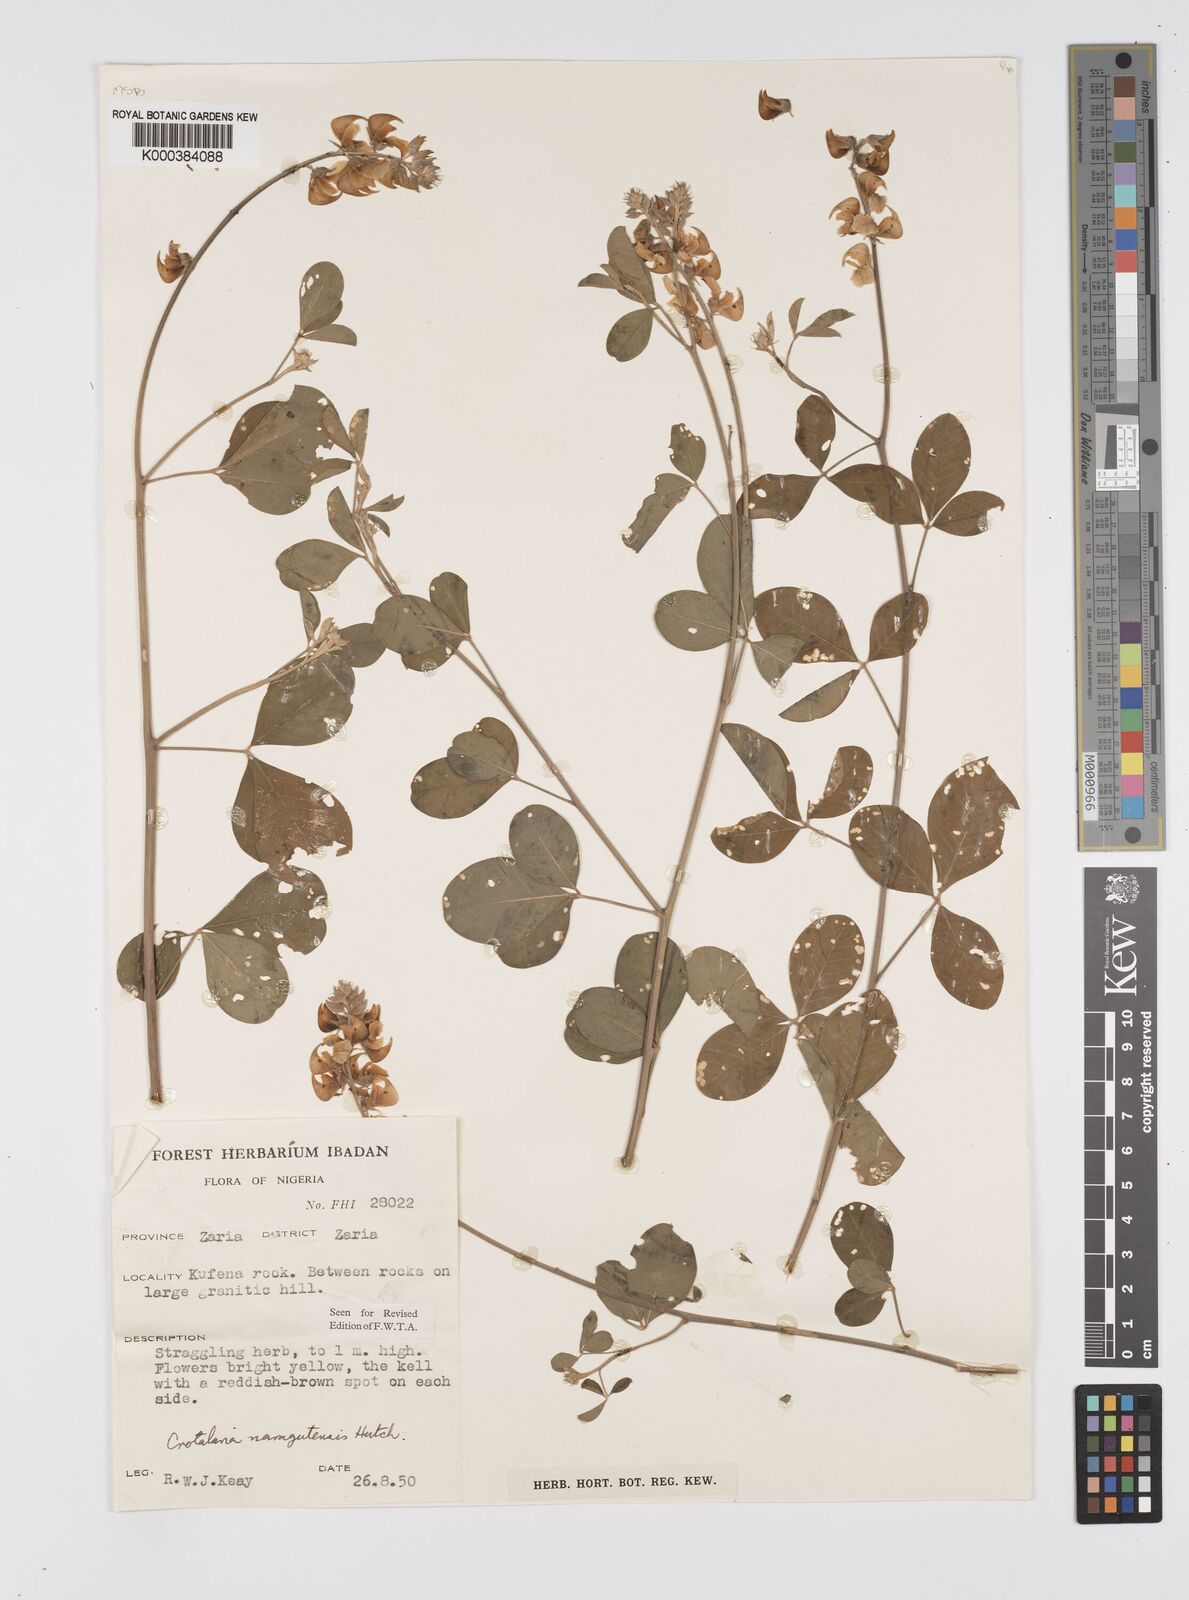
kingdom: Plantae
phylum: Tracheophyta
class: Magnoliopsida
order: Fabales
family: Fabaceae
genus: Crotalaria
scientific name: Crotalaria naragutensis
